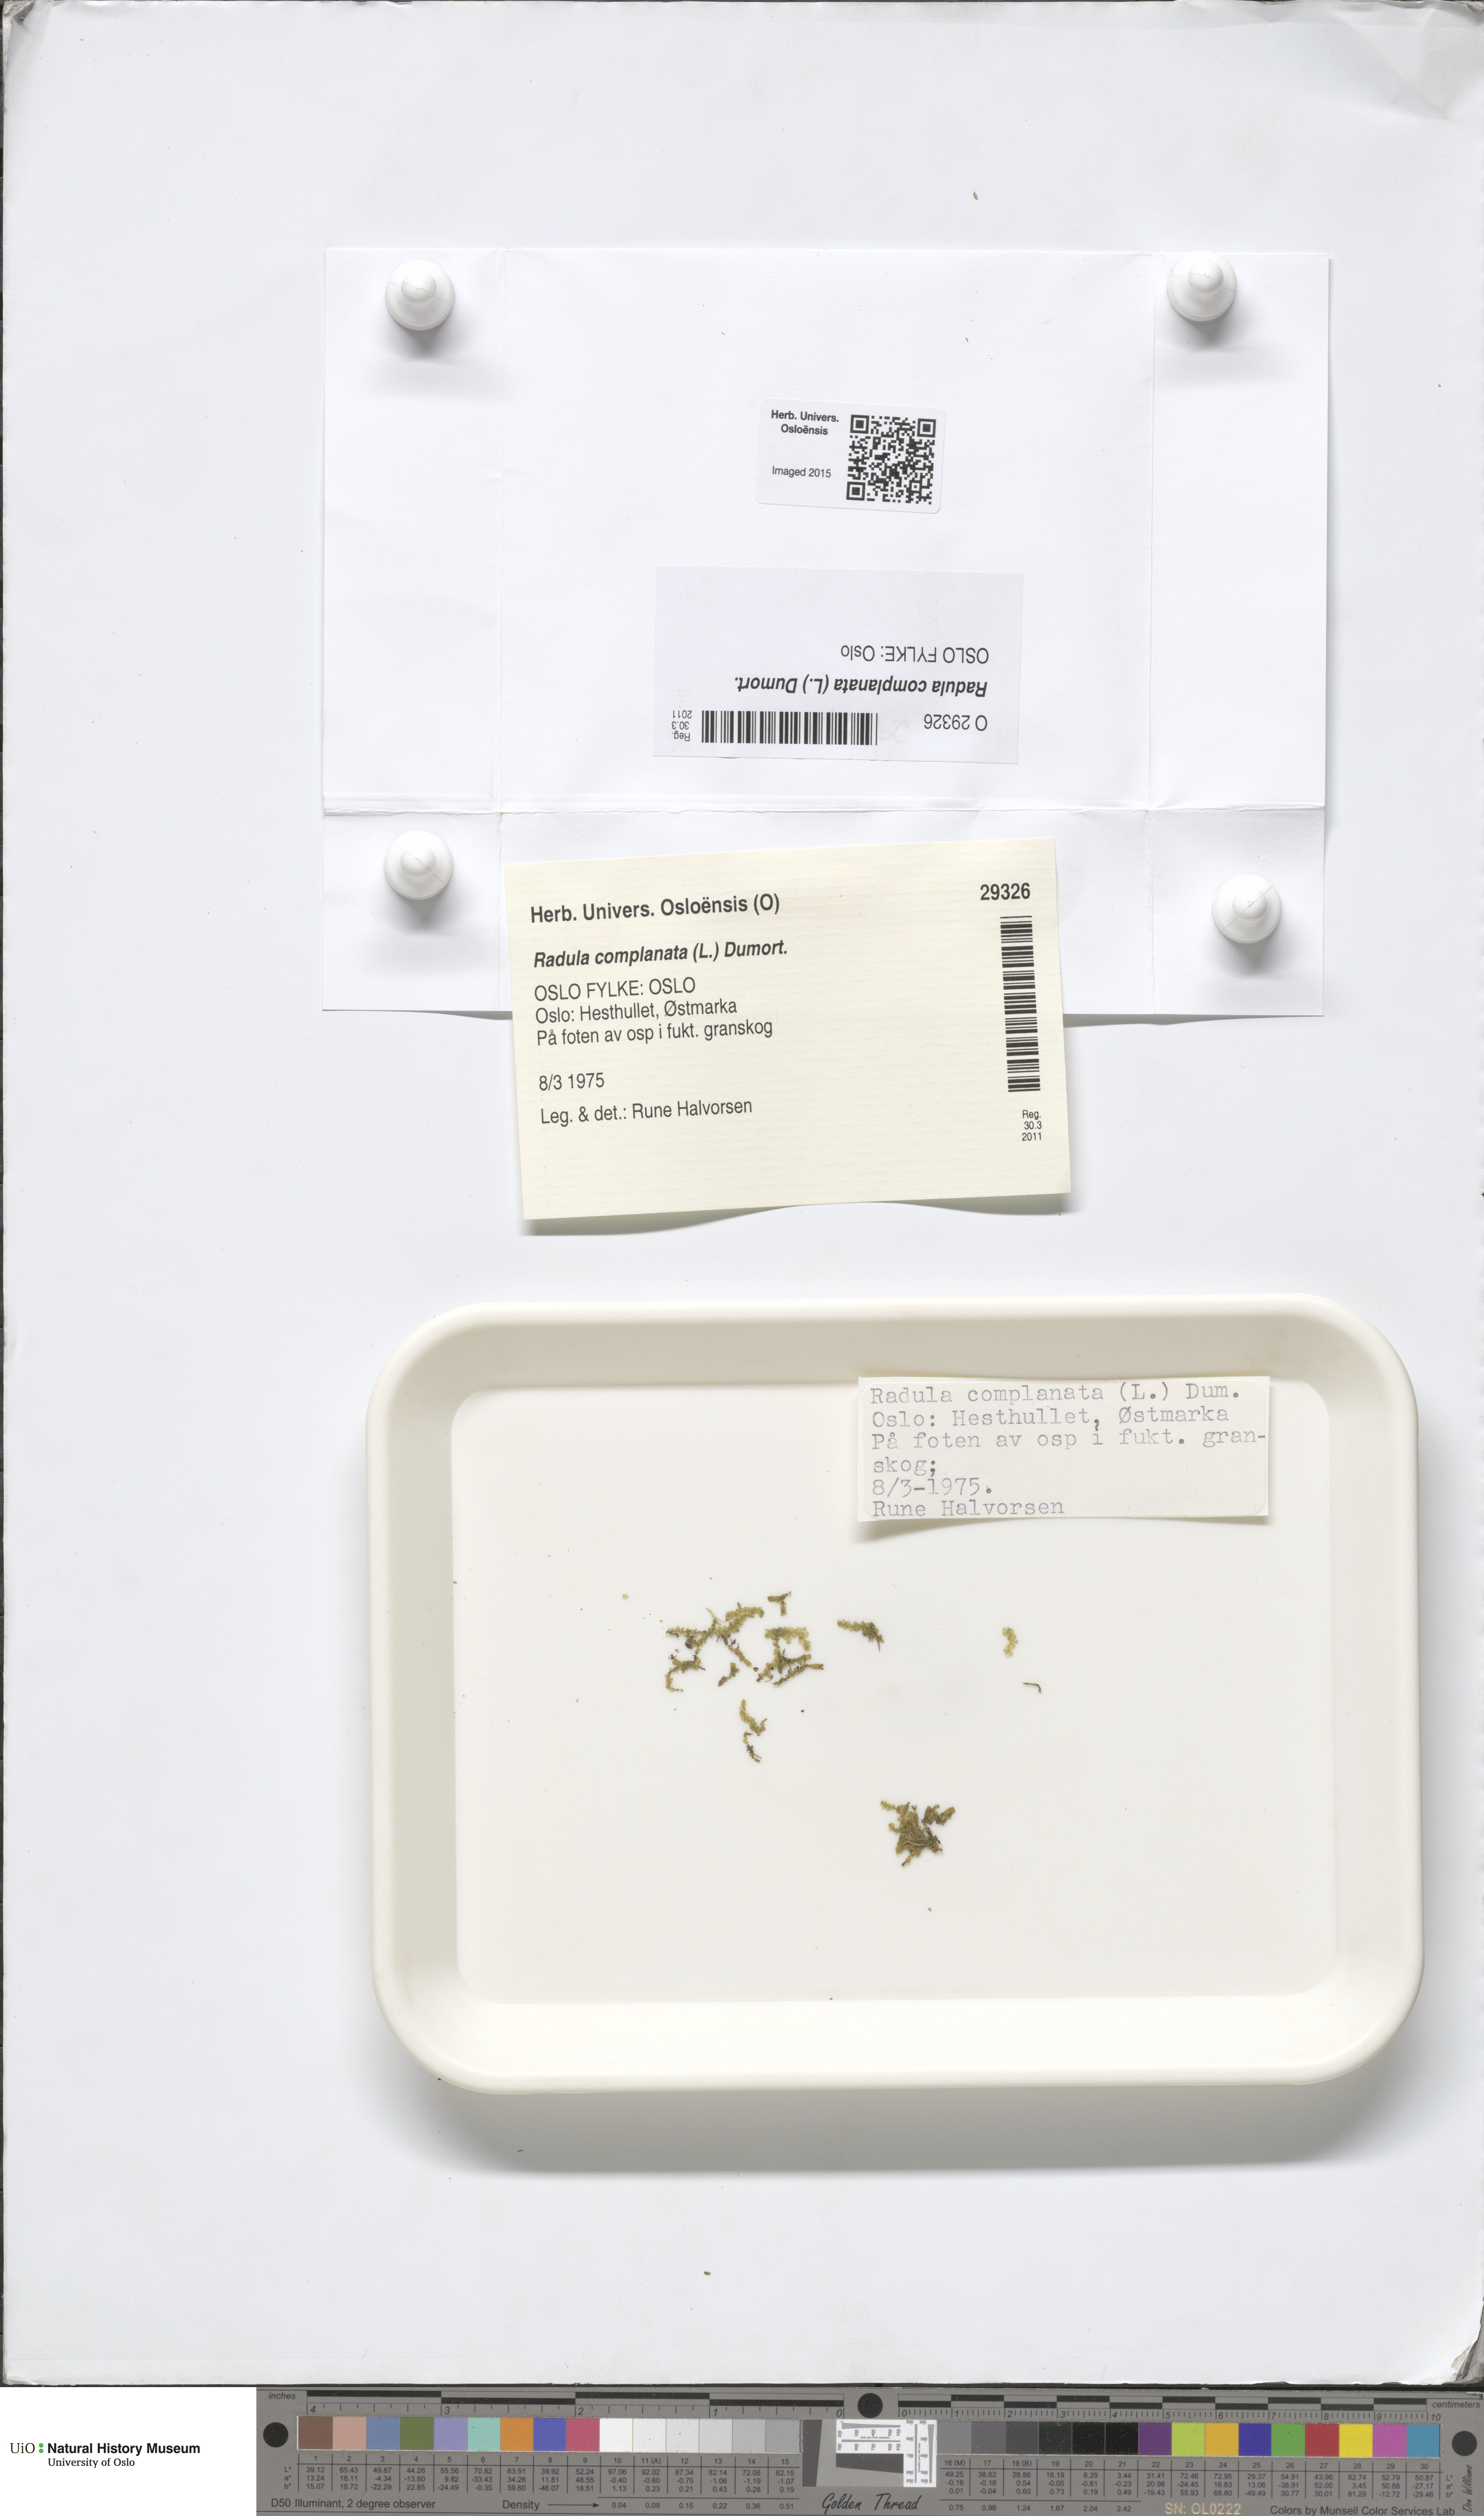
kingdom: Plantae
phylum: Marchantiophyta
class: Jungermanniopsida
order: Porellales
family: Radulaceae
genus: Radula
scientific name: Radula complanata
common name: Flat-leaved scalewort
